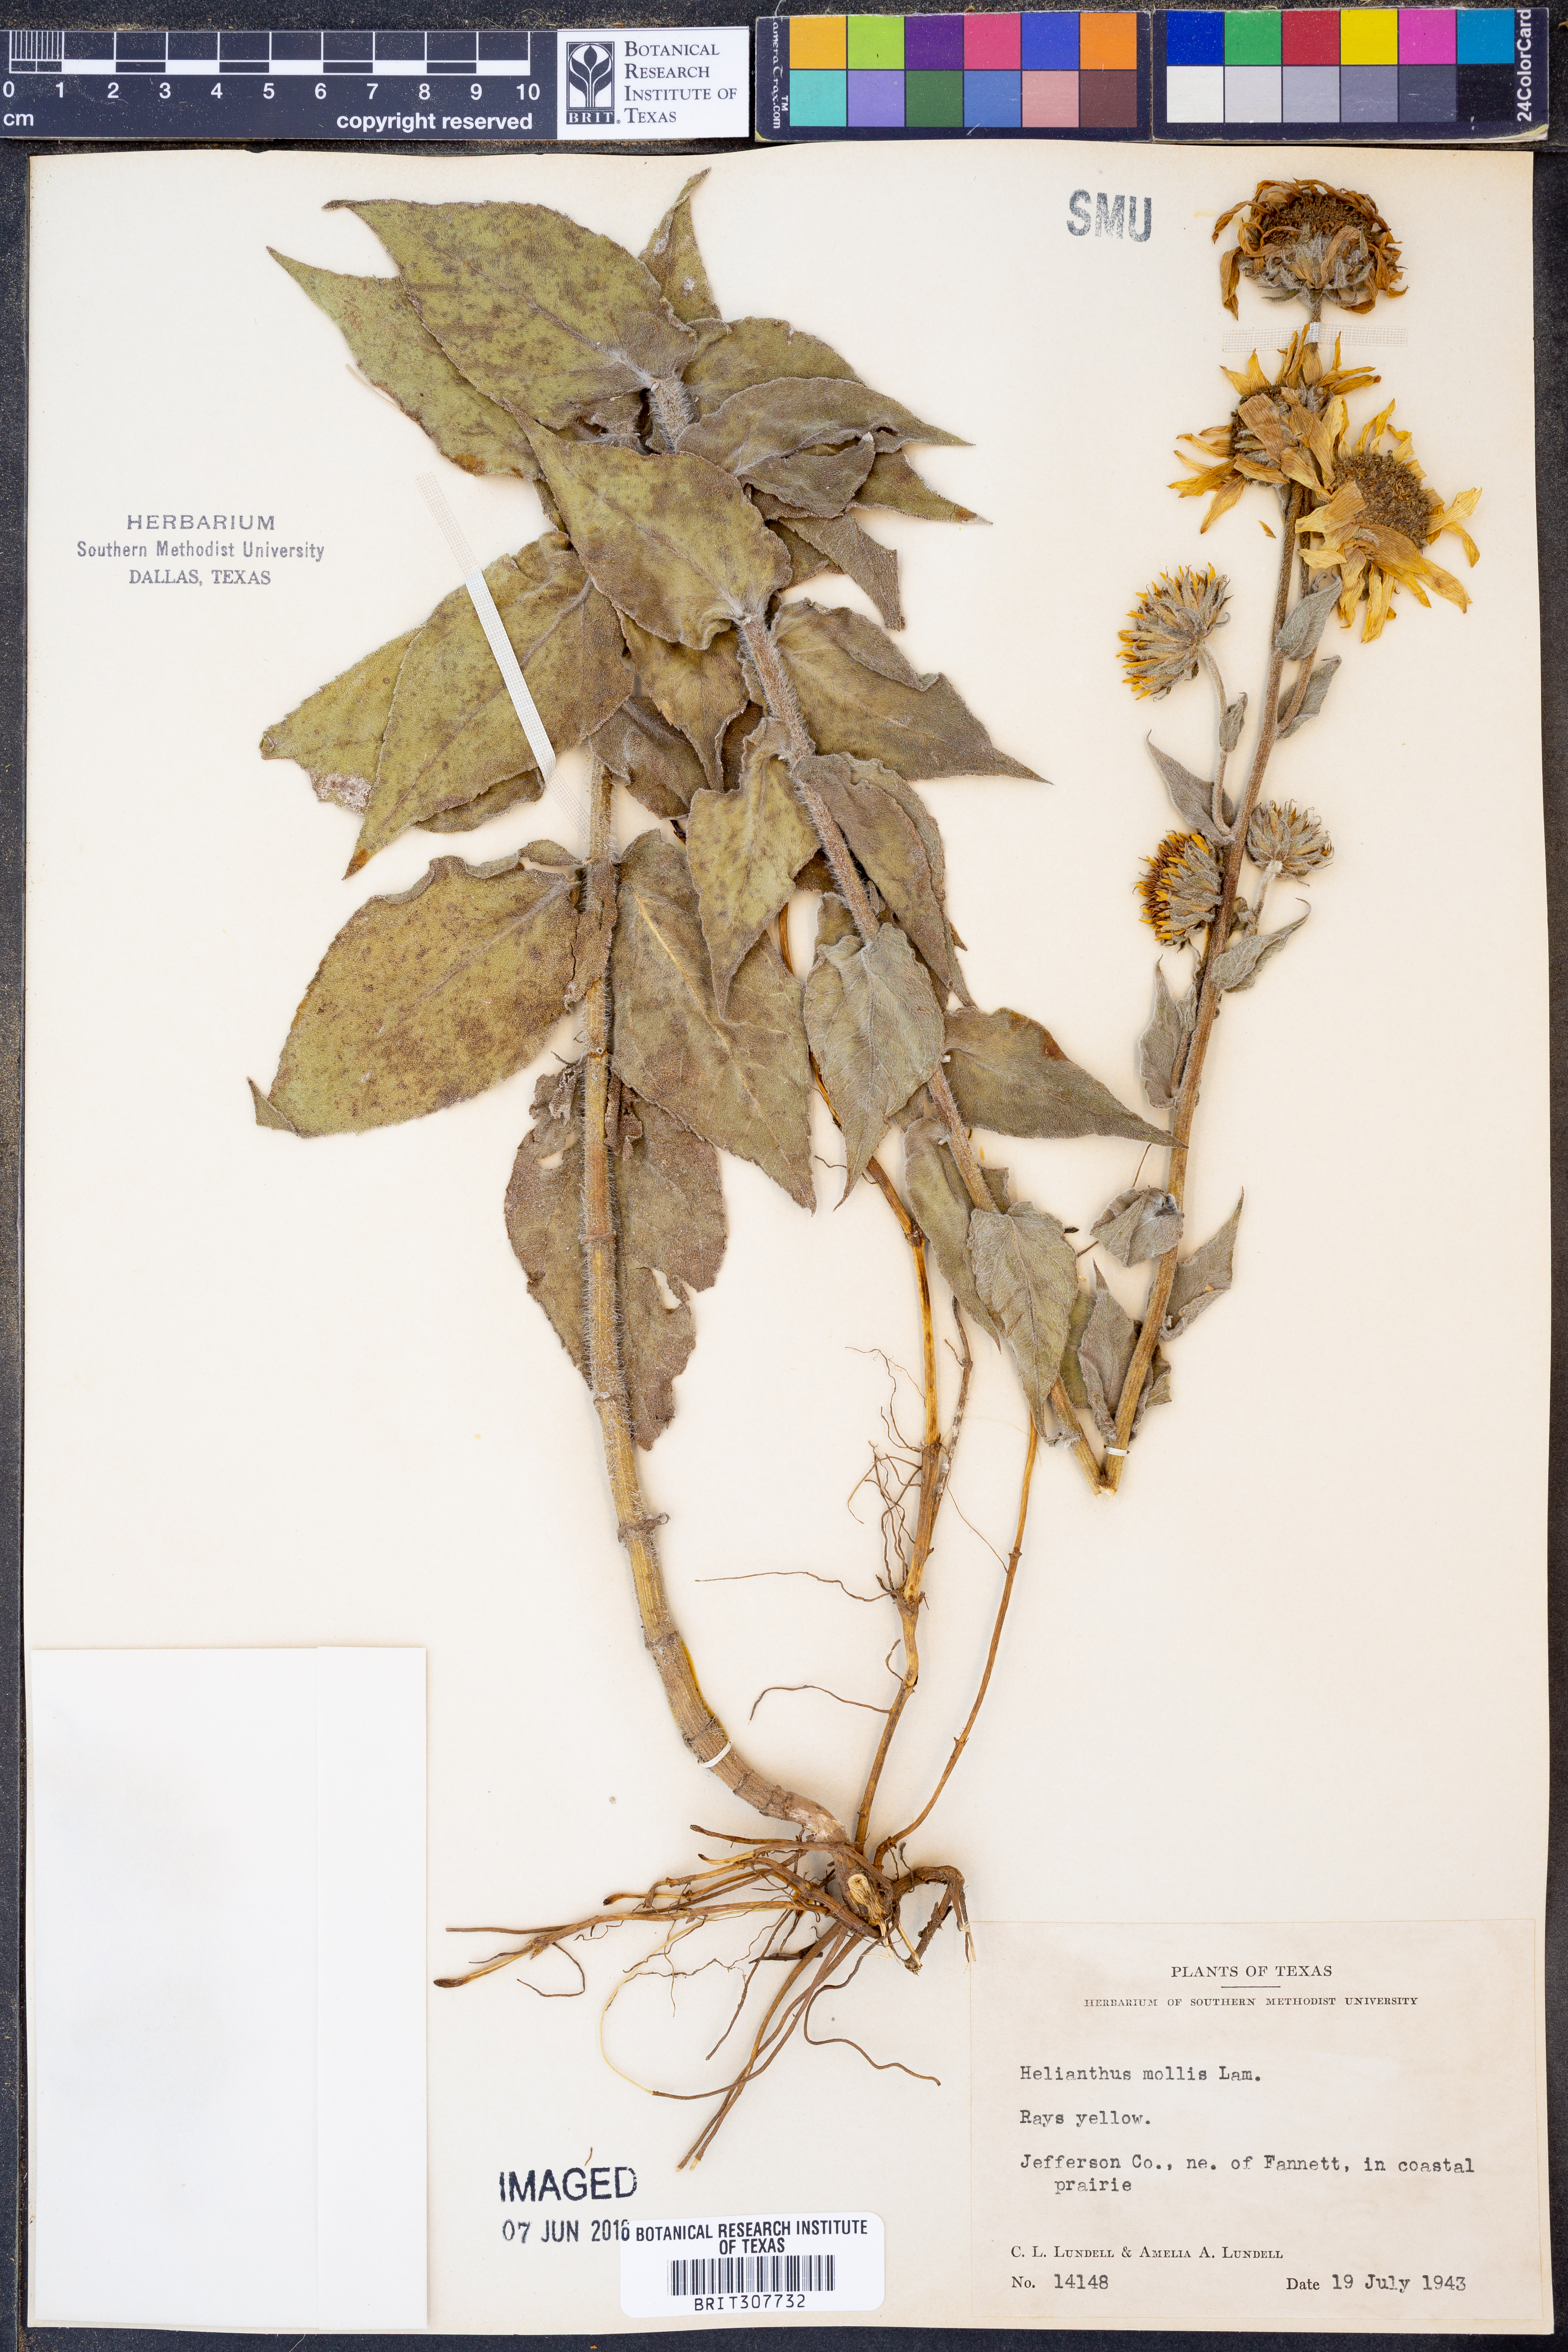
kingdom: Plantae
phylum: Tracheophyta
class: Magnoliopsida
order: Asterales
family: Asteraceae
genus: Helianthus
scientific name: Helianthus mollis
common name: Ashy sunflower
